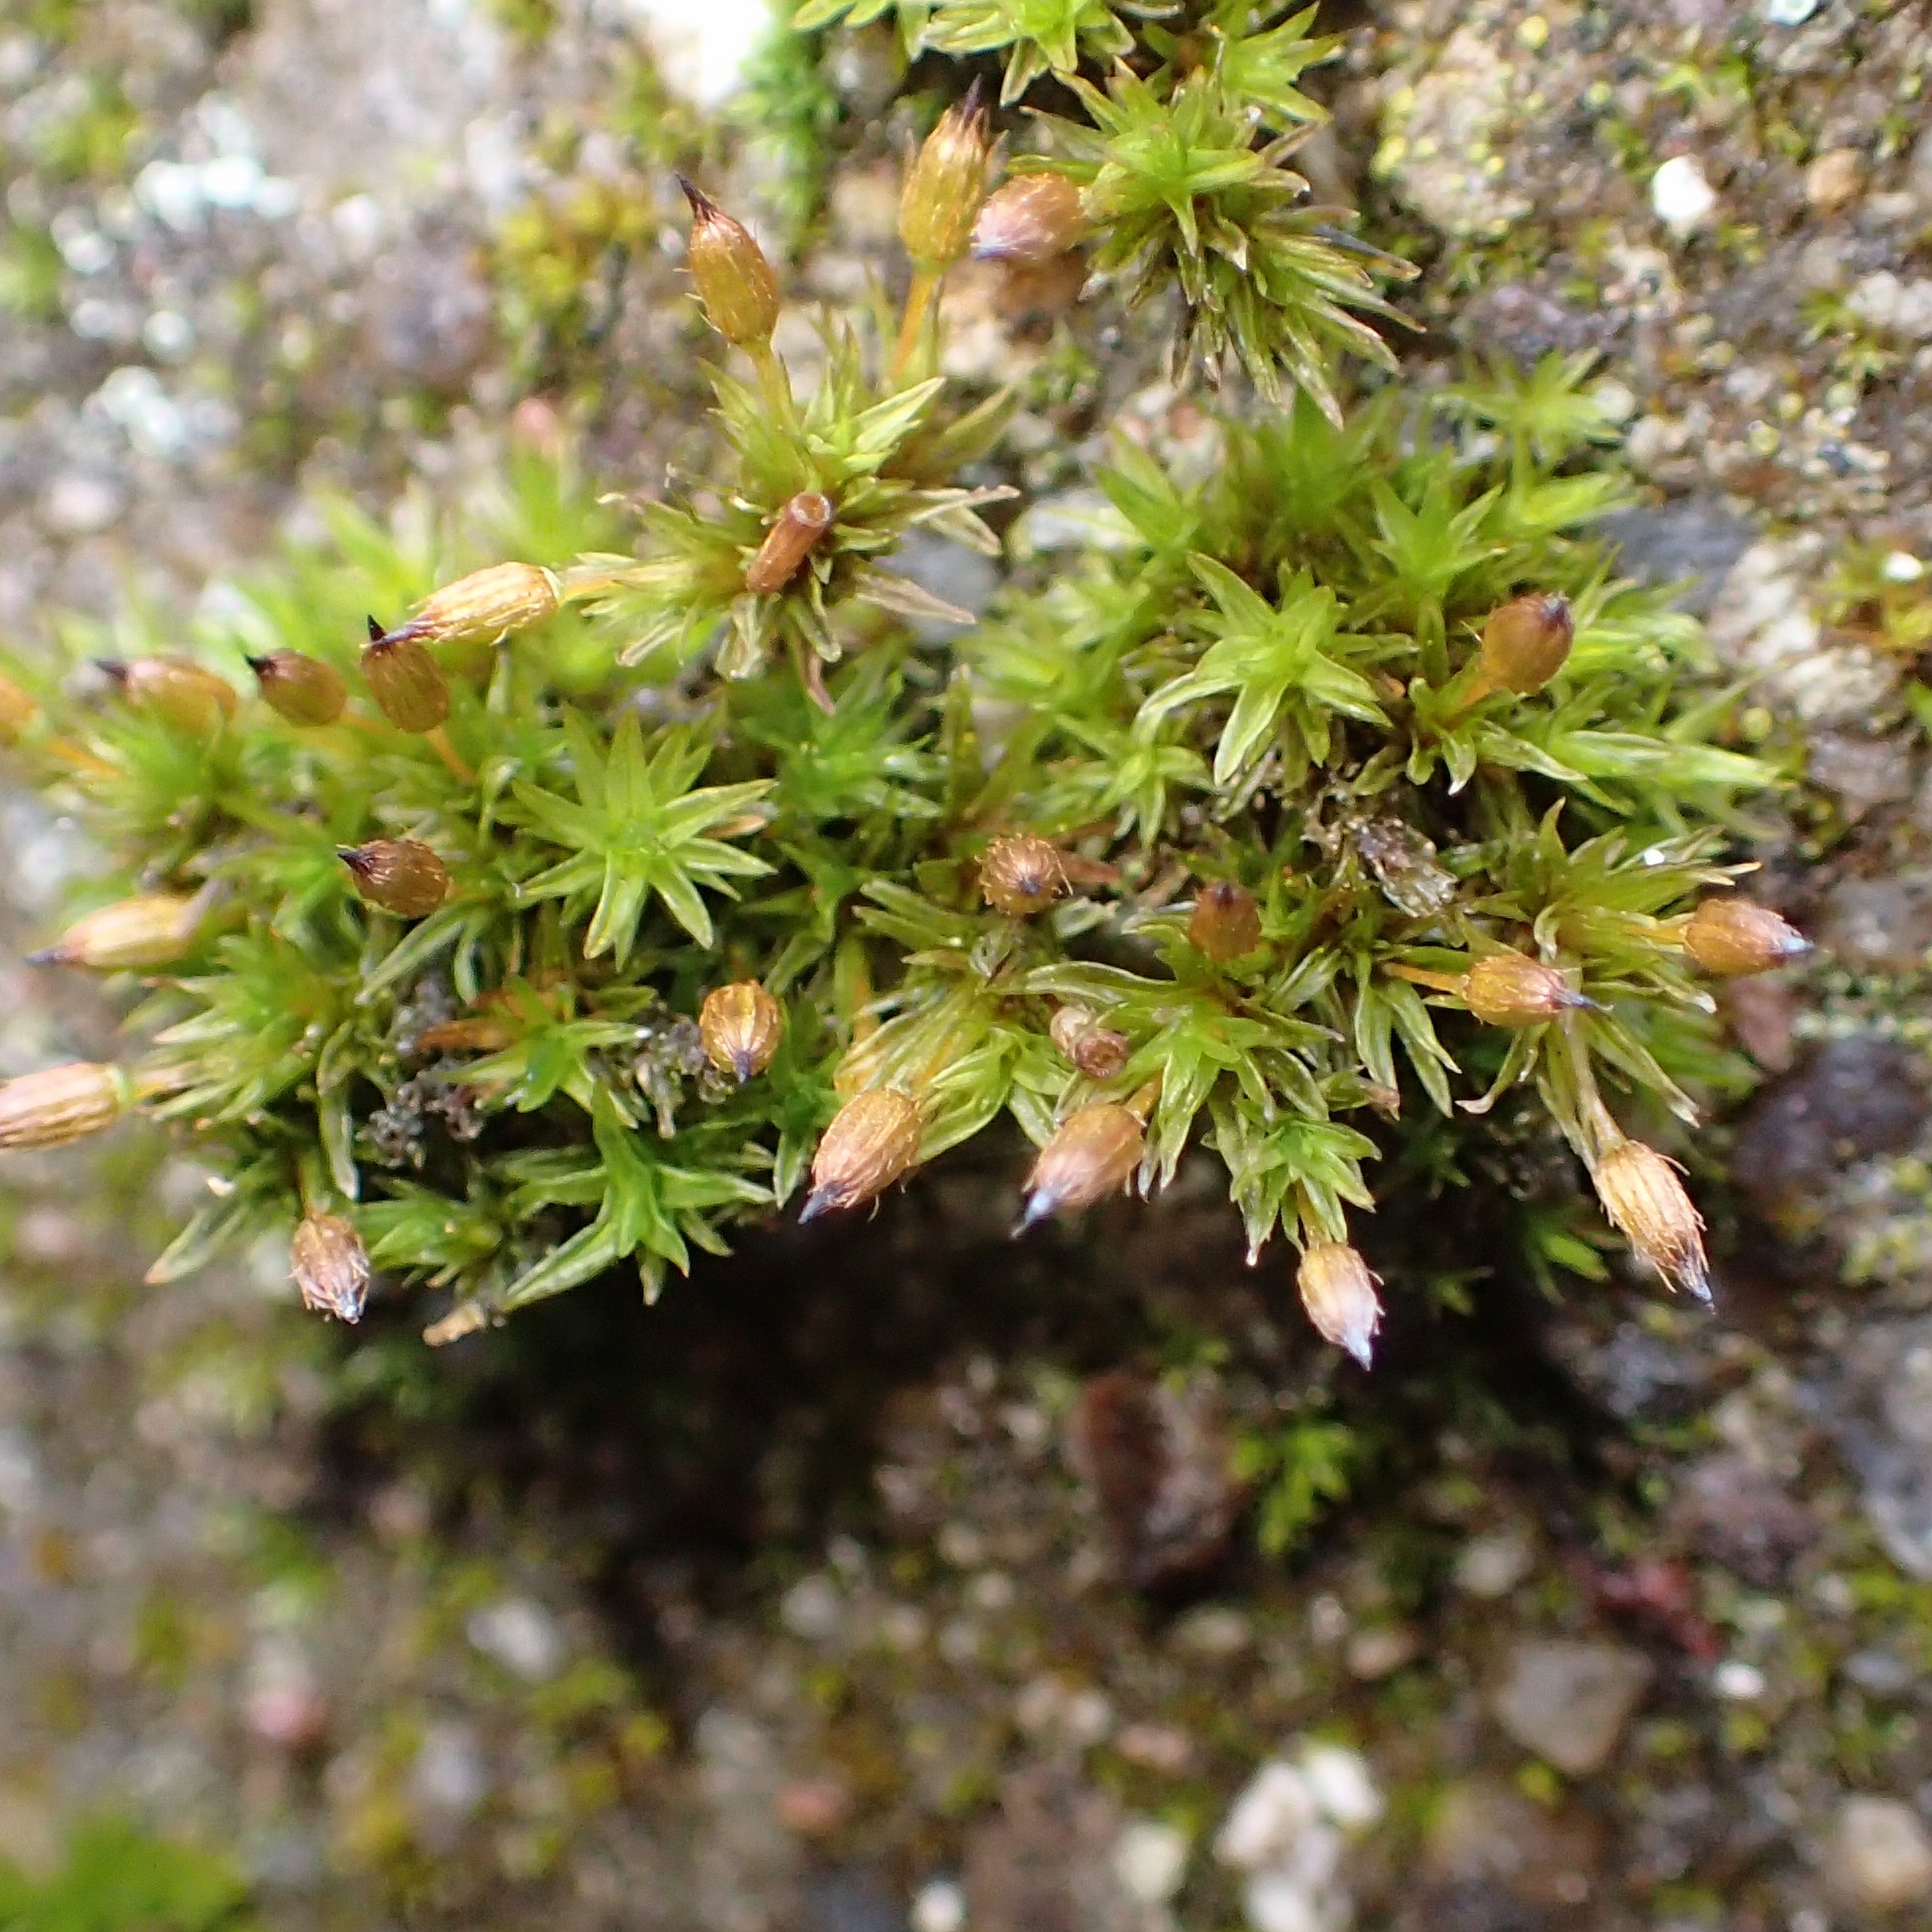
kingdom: Plantae
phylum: Bryophyta
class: Bryopsida
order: Orthotrichales
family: Orthotrichaceae
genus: Orthotrichum
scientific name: Orthotrichum anomalum
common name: Mørk furehætte
